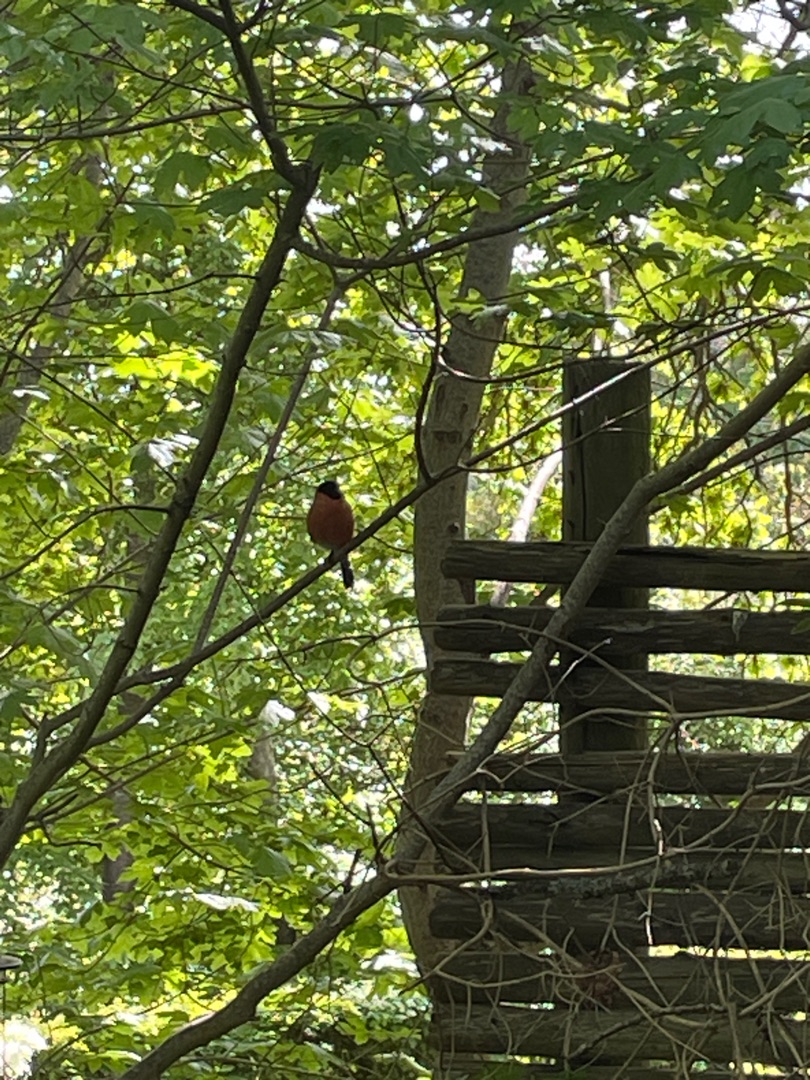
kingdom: Animalia
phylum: Chordata
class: Aves
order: Passeriformes
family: Fringillidae
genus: Pyrrhula
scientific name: Pyrrhula pyrrhula
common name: Dompap
